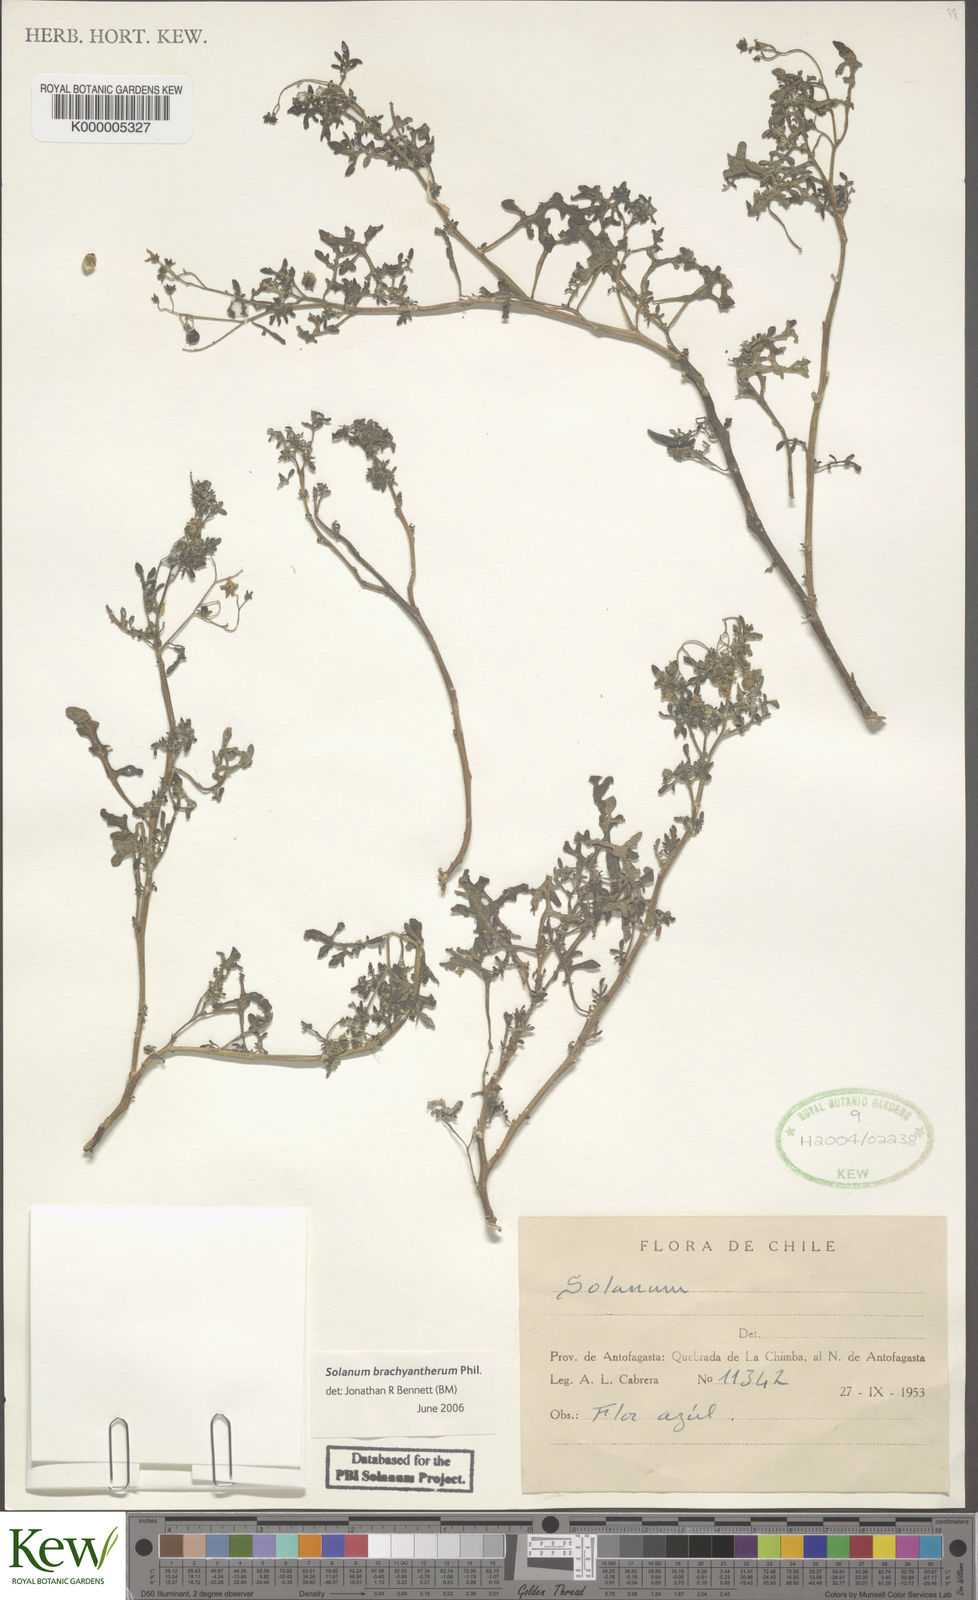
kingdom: Plantae
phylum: Tracheophyta
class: Magnoliopsida
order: Solanales
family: Solanaceae
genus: Solanum
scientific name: Solanum brachyantherum
